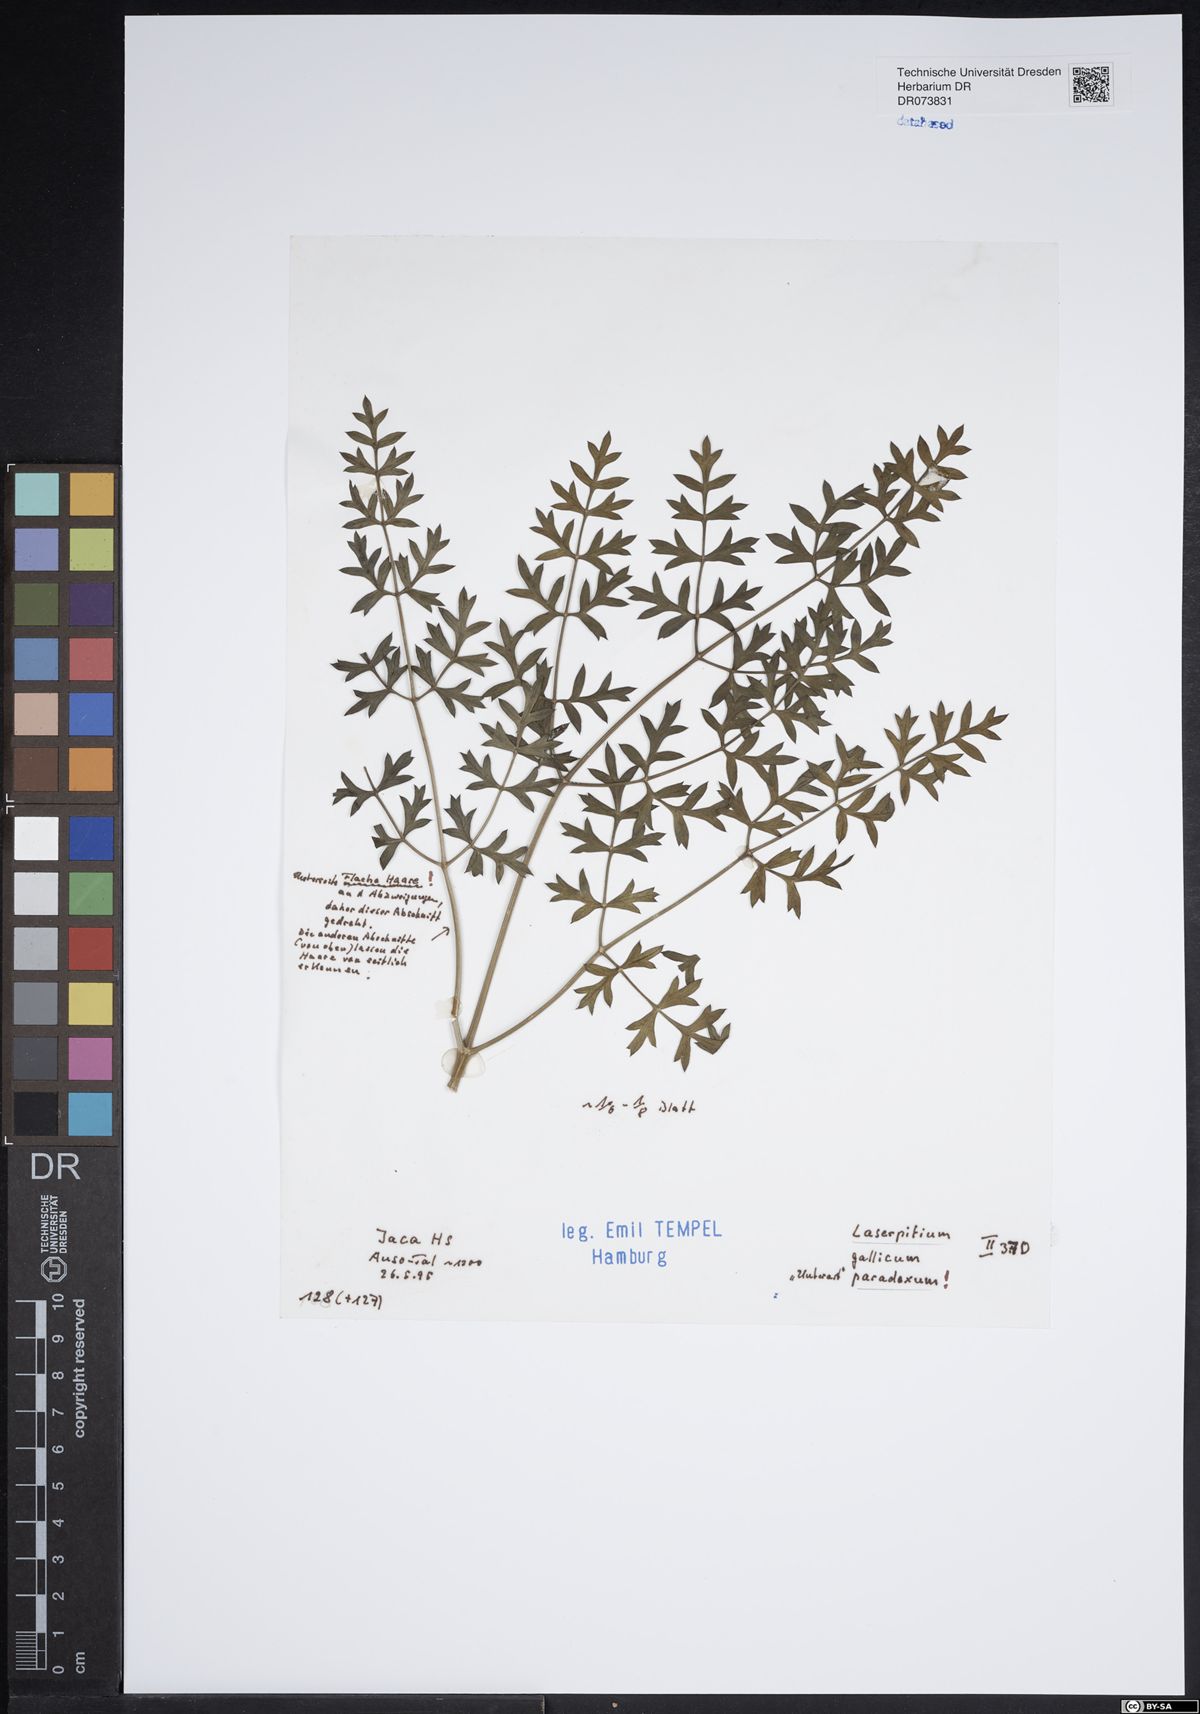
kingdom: Plantae
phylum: Tracheophyta
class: Magnoliopsida
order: Apiales
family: Apiaceae
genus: Laserpitium
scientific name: Laserpitium gallicum
